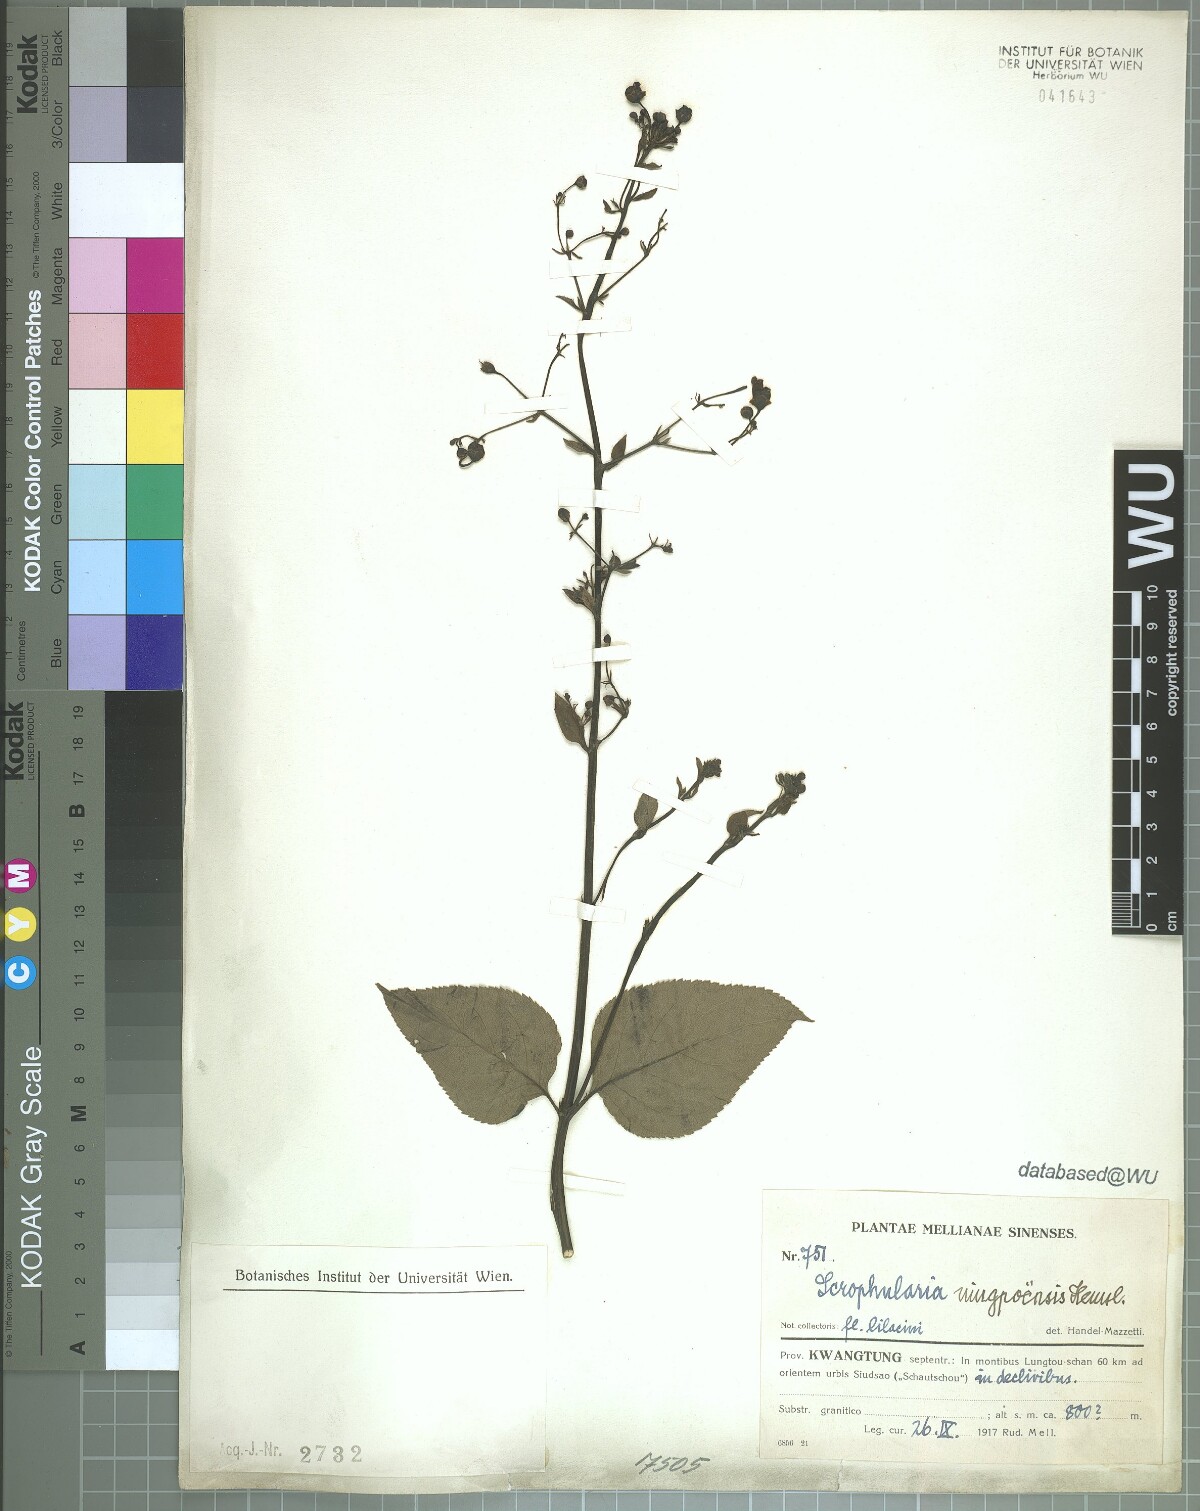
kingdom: Plantae
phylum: Tracheophyta
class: Magnoliopsida
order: Lamiales
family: Scrophulariaceae
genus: Scrophularia
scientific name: Scrophularia ningpoensis
